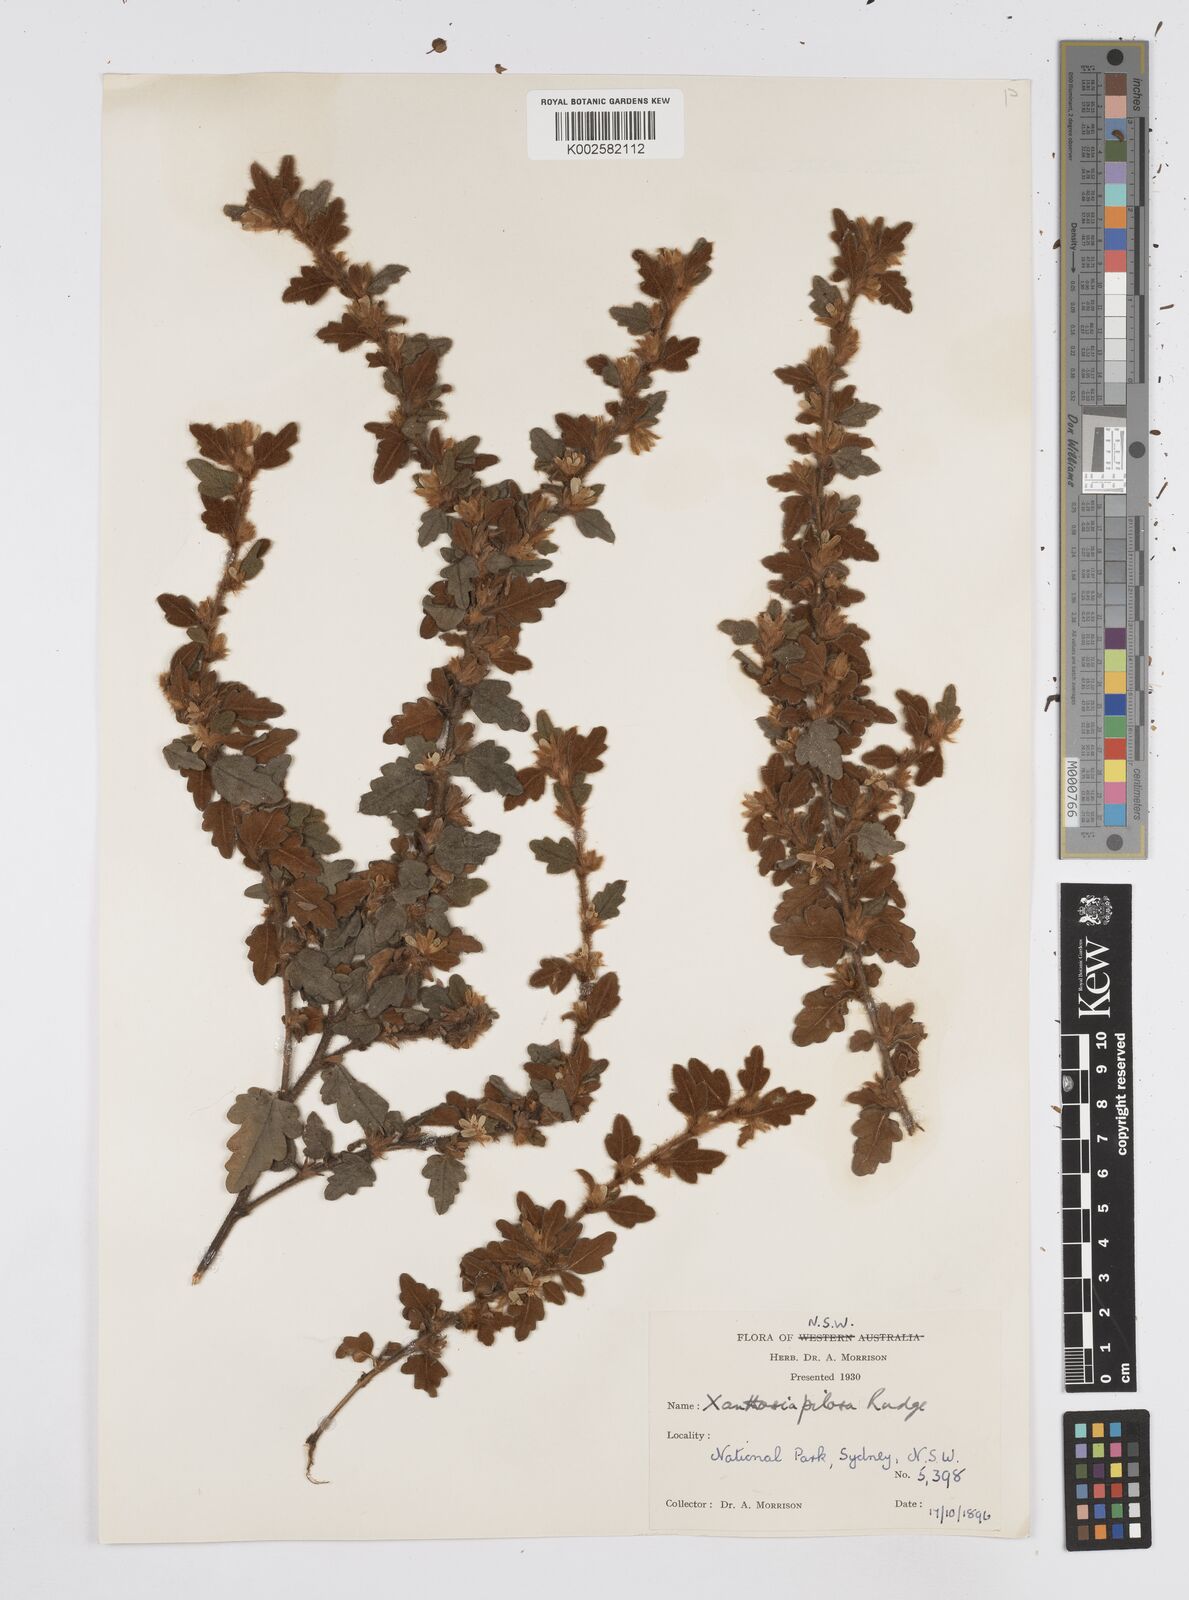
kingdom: Plantae
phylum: Tracheophyta
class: Magnoliopsida
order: Apiales
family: Apiaceae
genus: Xanthosia
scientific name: Xanthosia pilosa
